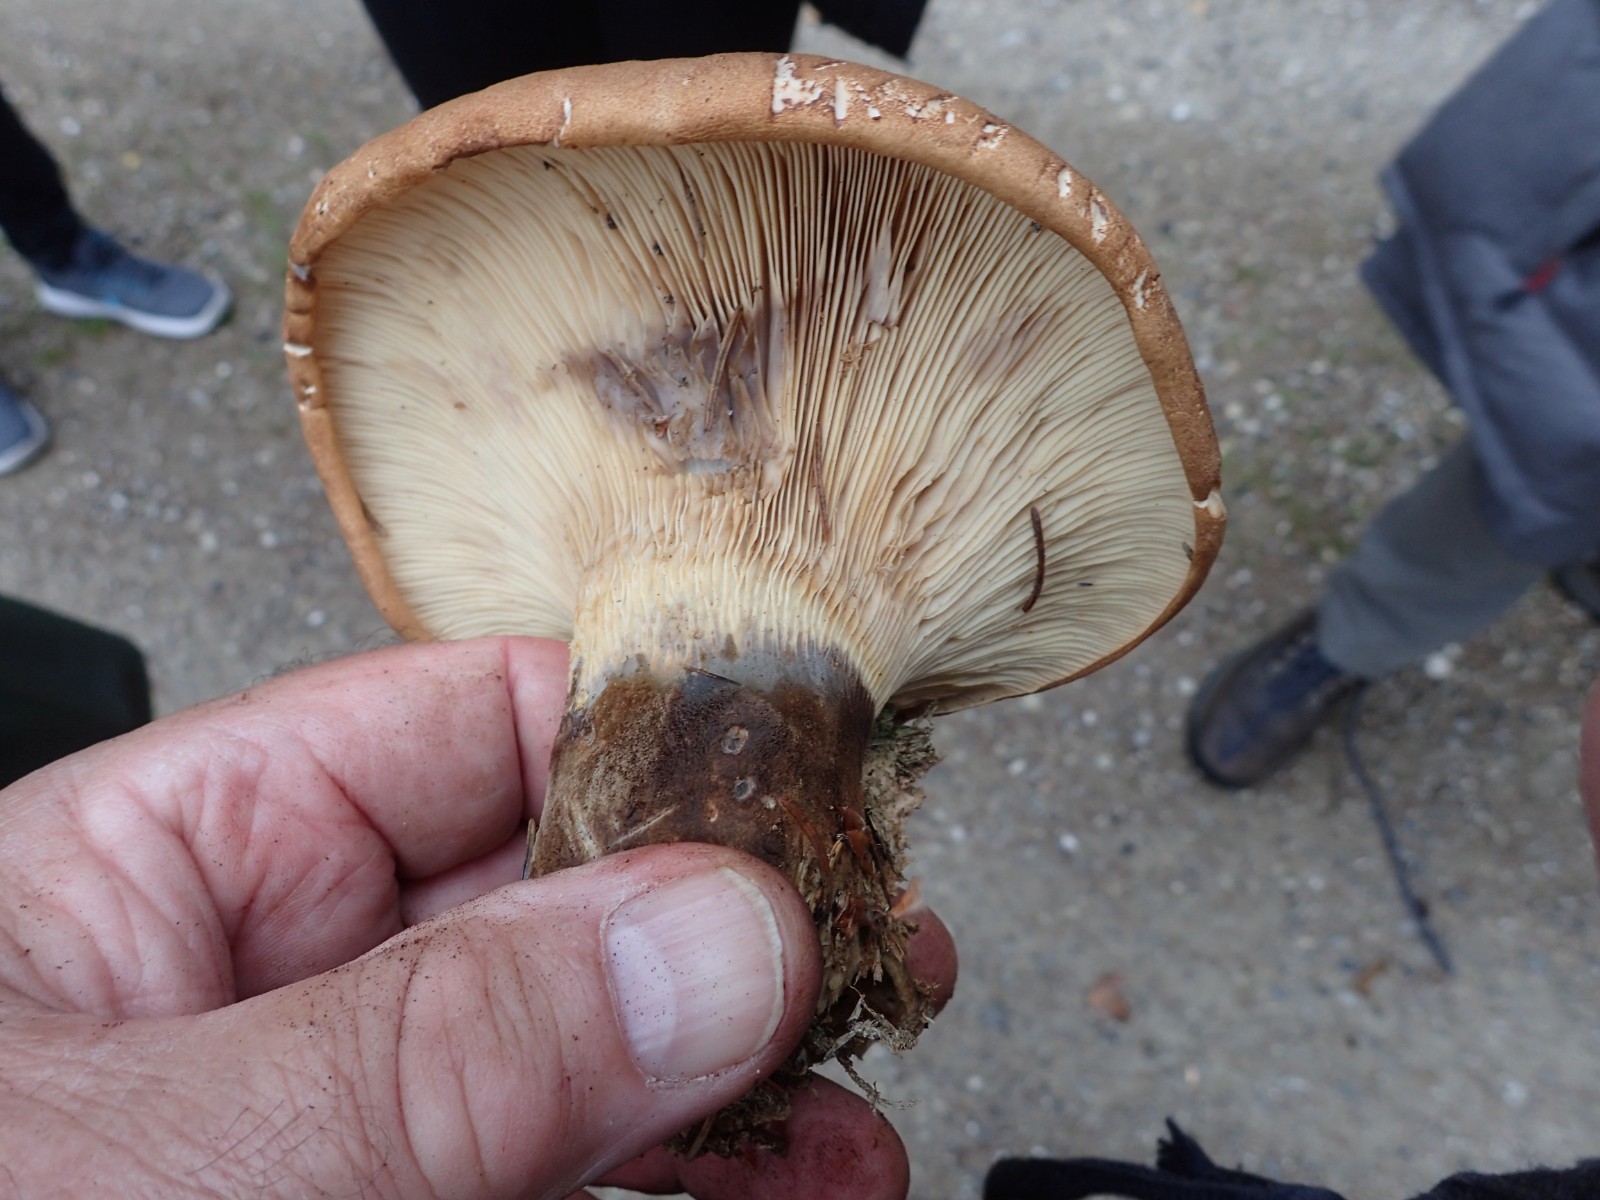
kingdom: Fungi
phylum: Basidiomycota
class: Agaricomycetes
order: Boletales
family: Tapinellaceae
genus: Tapinella
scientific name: Tapinella atrotomentosa
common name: sortfiltet viftesvamp
